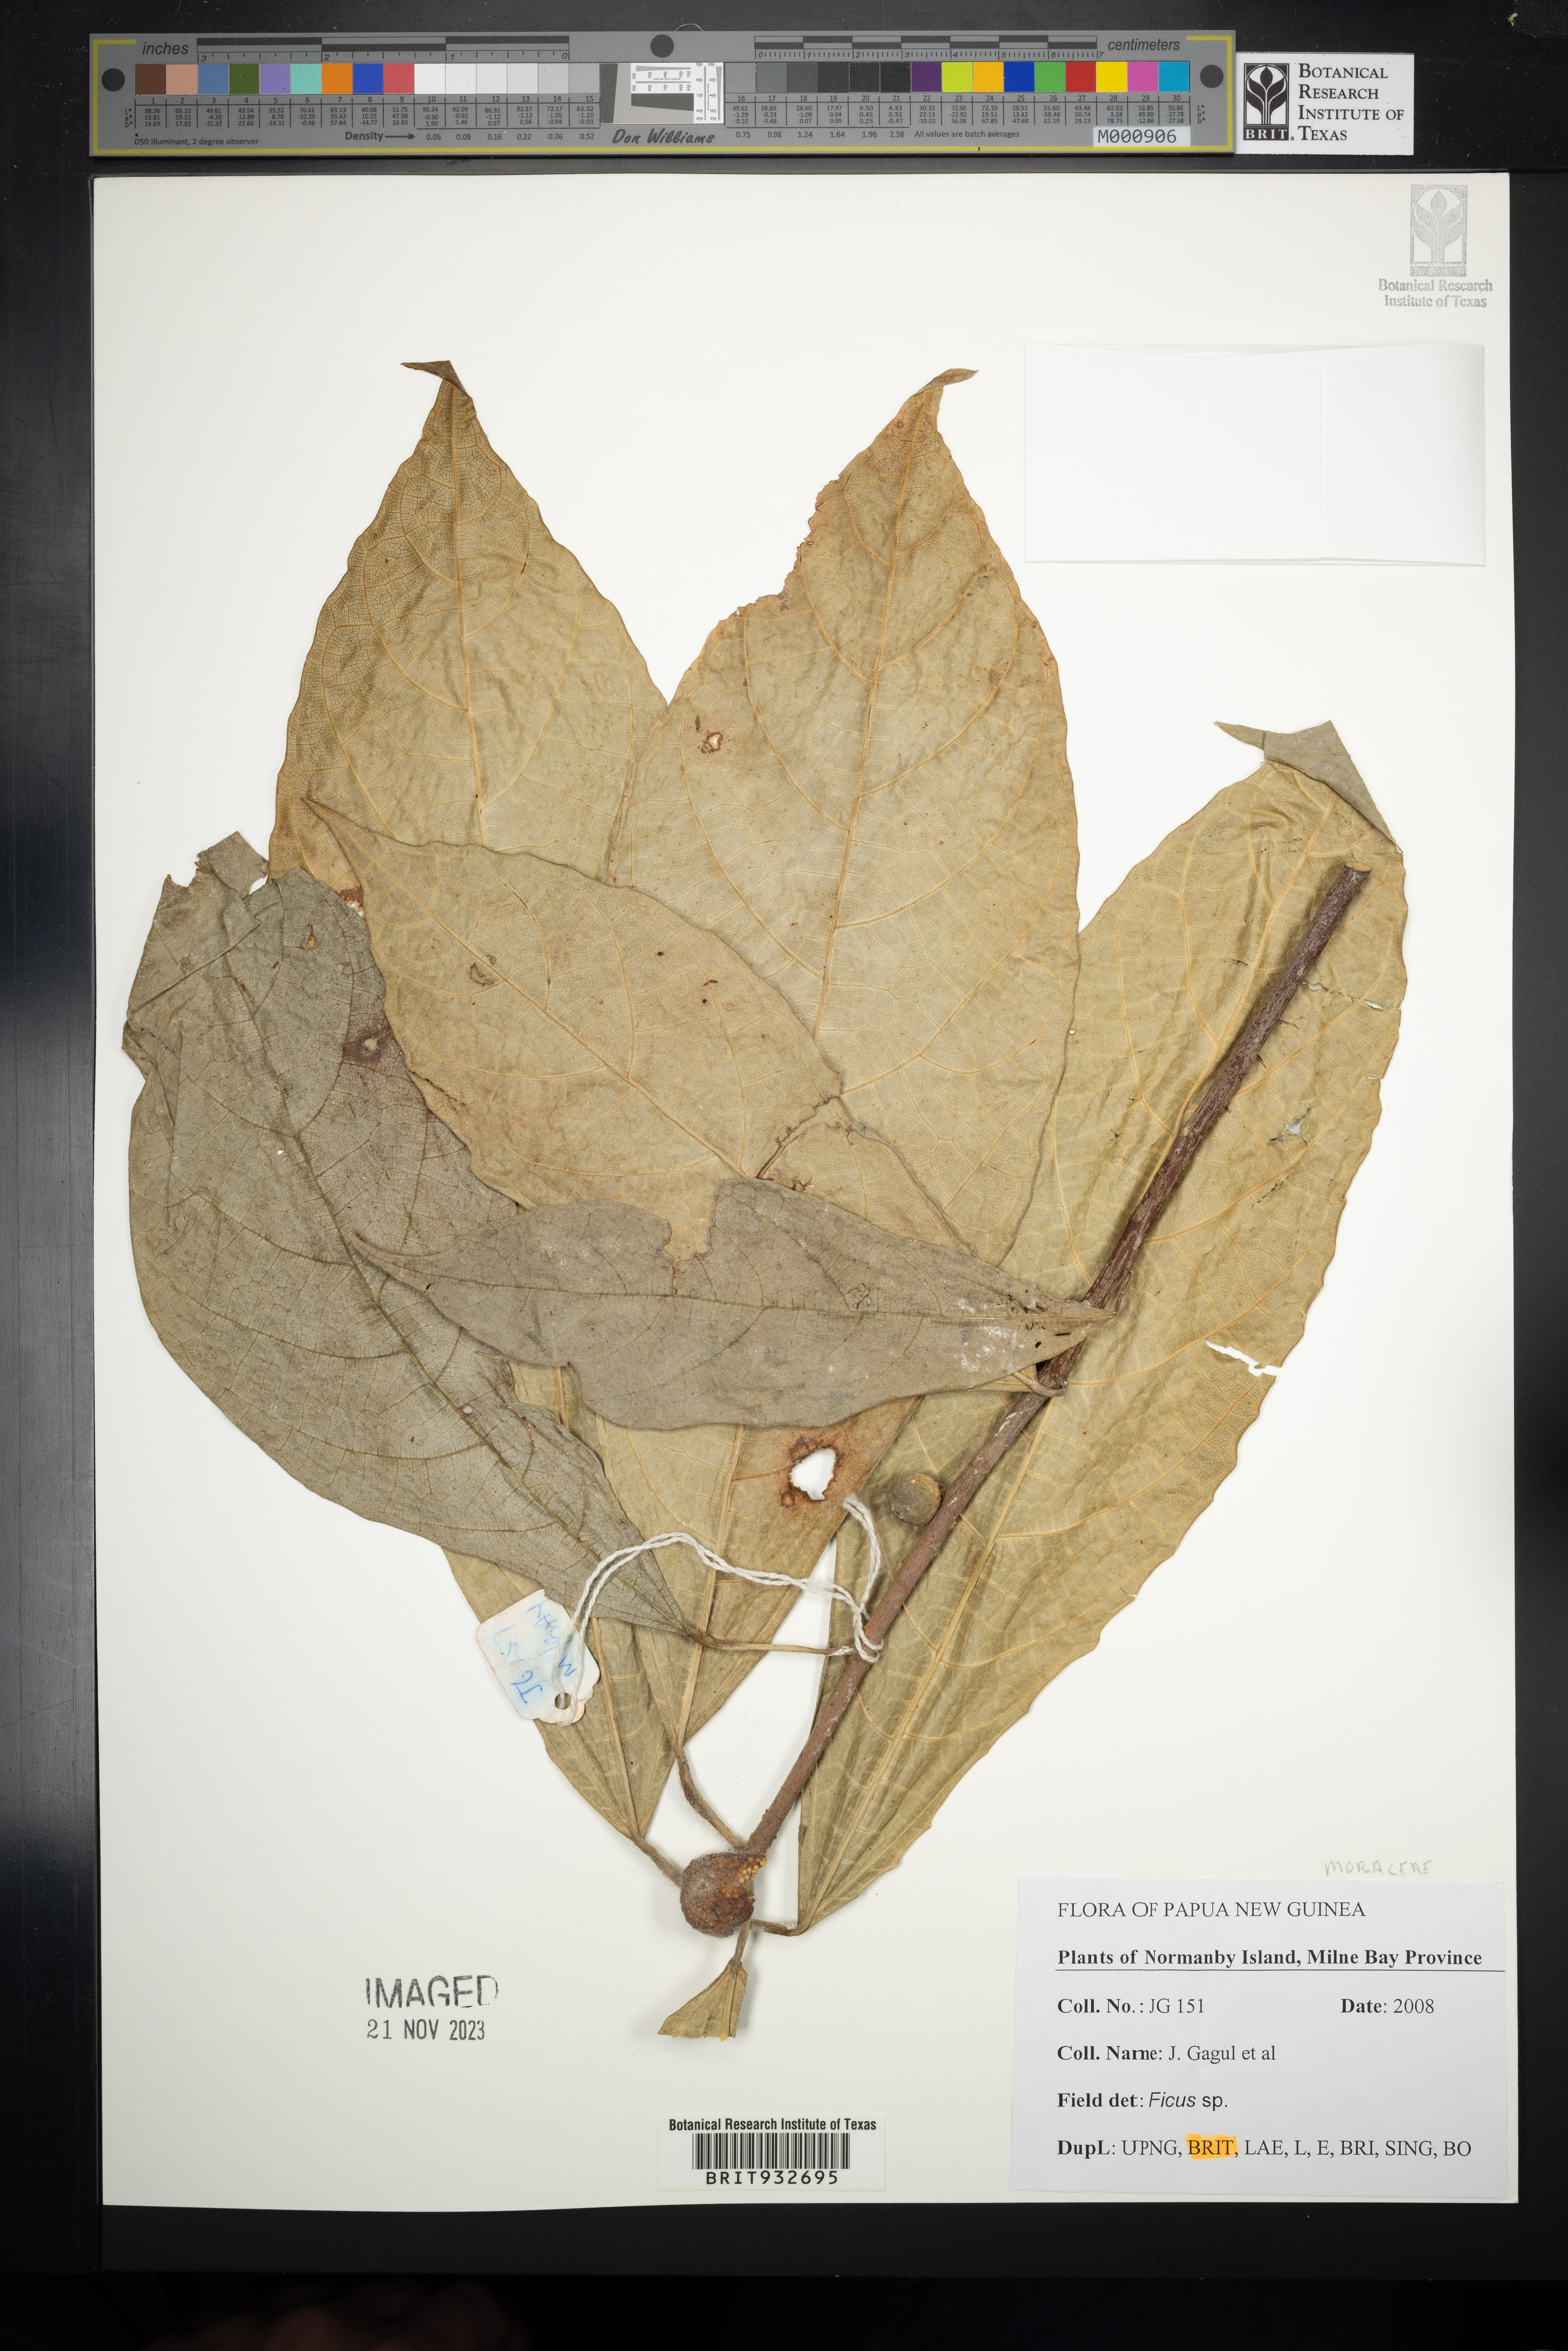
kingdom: Plantae
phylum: Tracheophyta
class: Magnoliopsida
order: Rosales
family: Moraceae
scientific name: Moraceae
